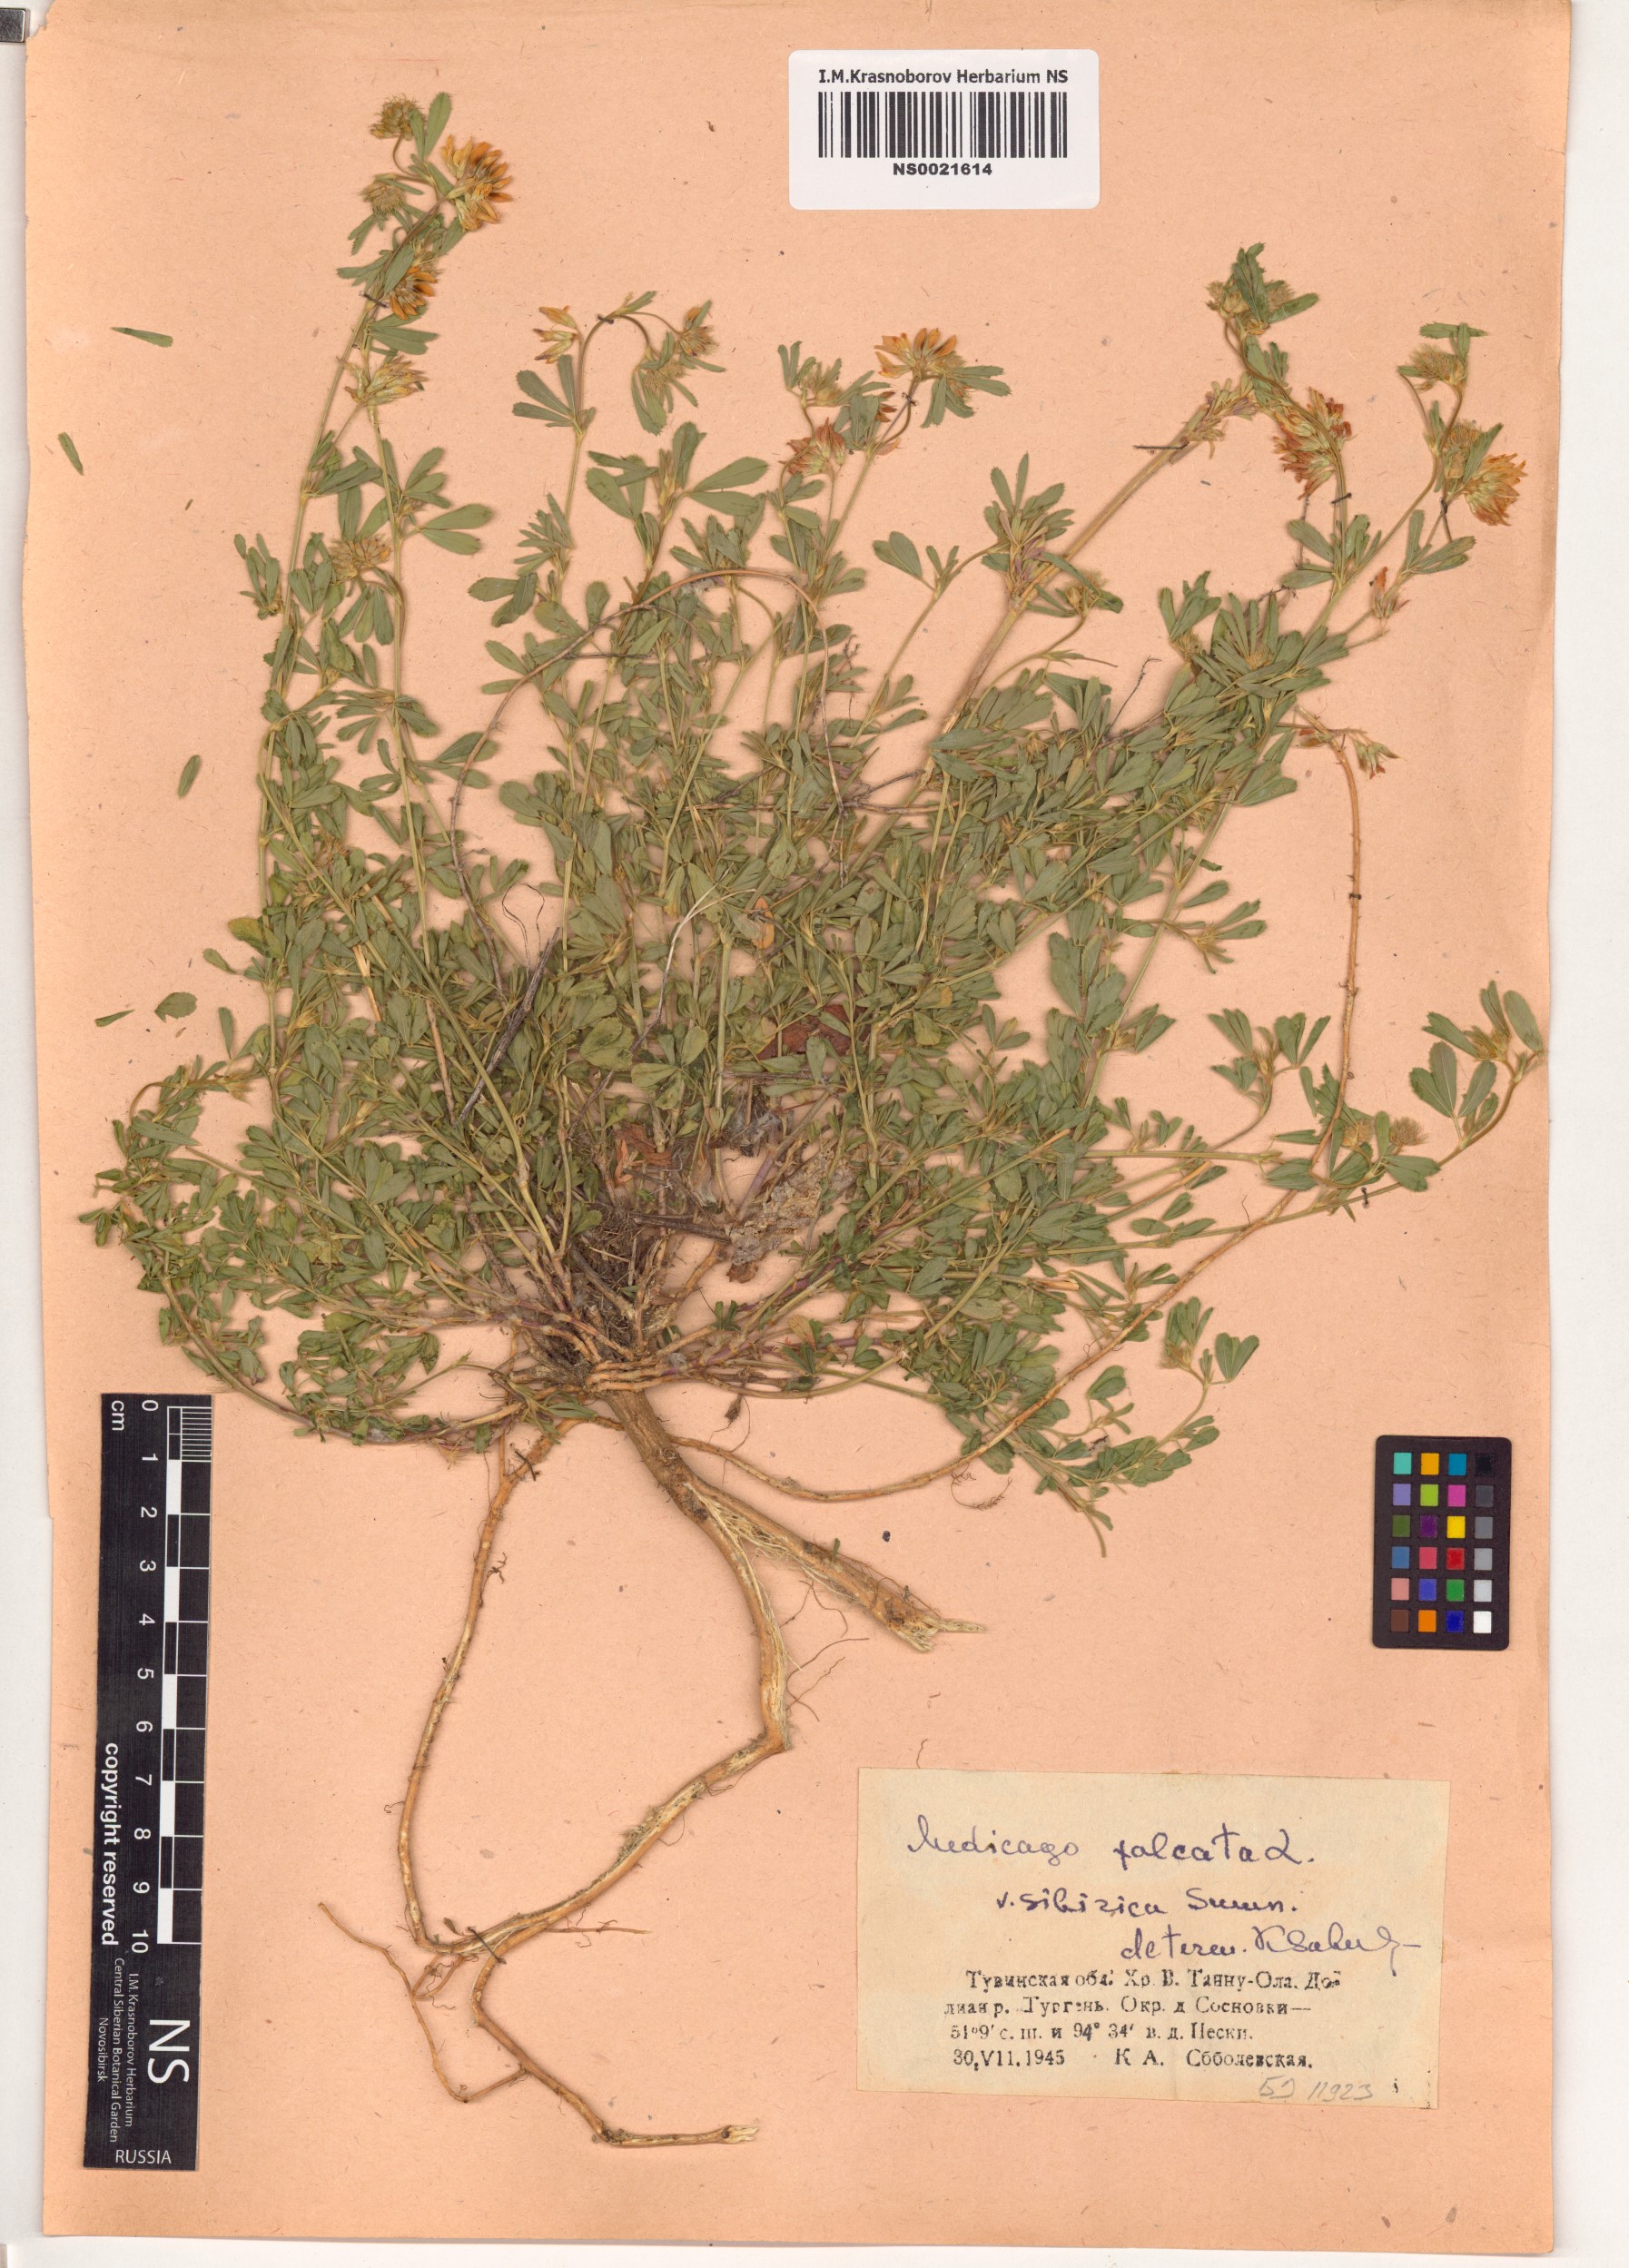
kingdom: Plantae
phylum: Tracheophyta
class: Magnoliopsida
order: Fabales
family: Fabaceae
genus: Medicago
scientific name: Medicago falcata
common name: Sickle medick
